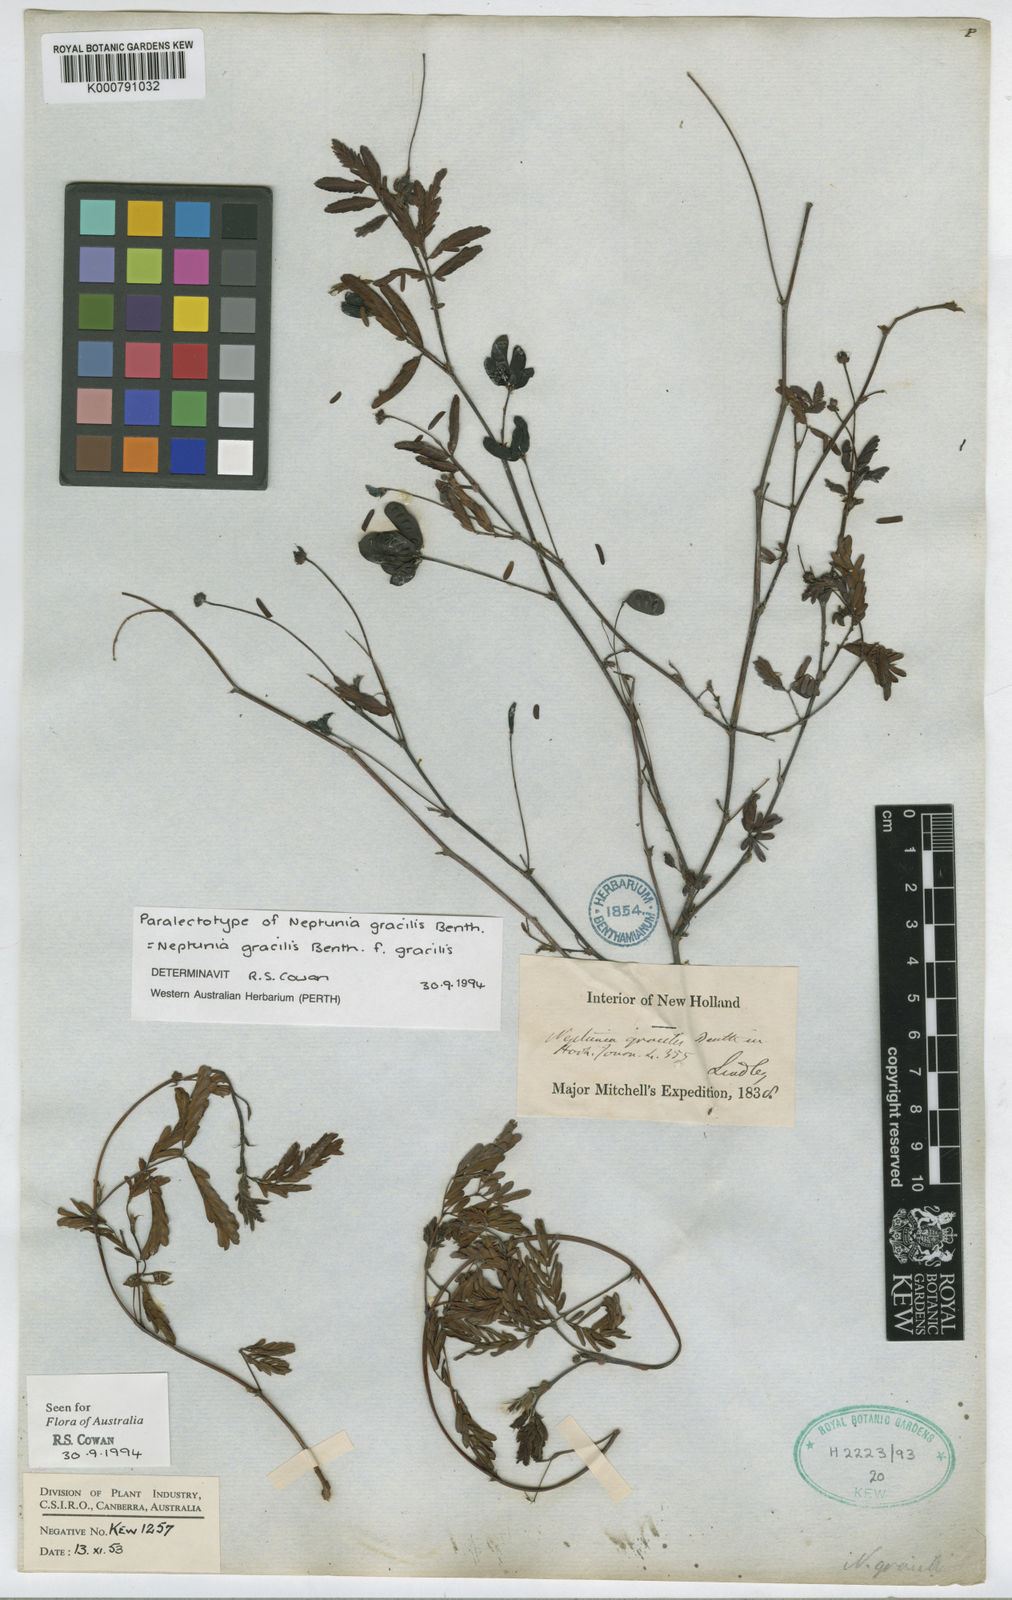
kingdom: Plantae
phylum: Tracheophyta
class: Magnoliopsida
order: Fabales
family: Fabaceae
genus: Neptunia
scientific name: Neptunia gracilis
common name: Sensitive-plant
